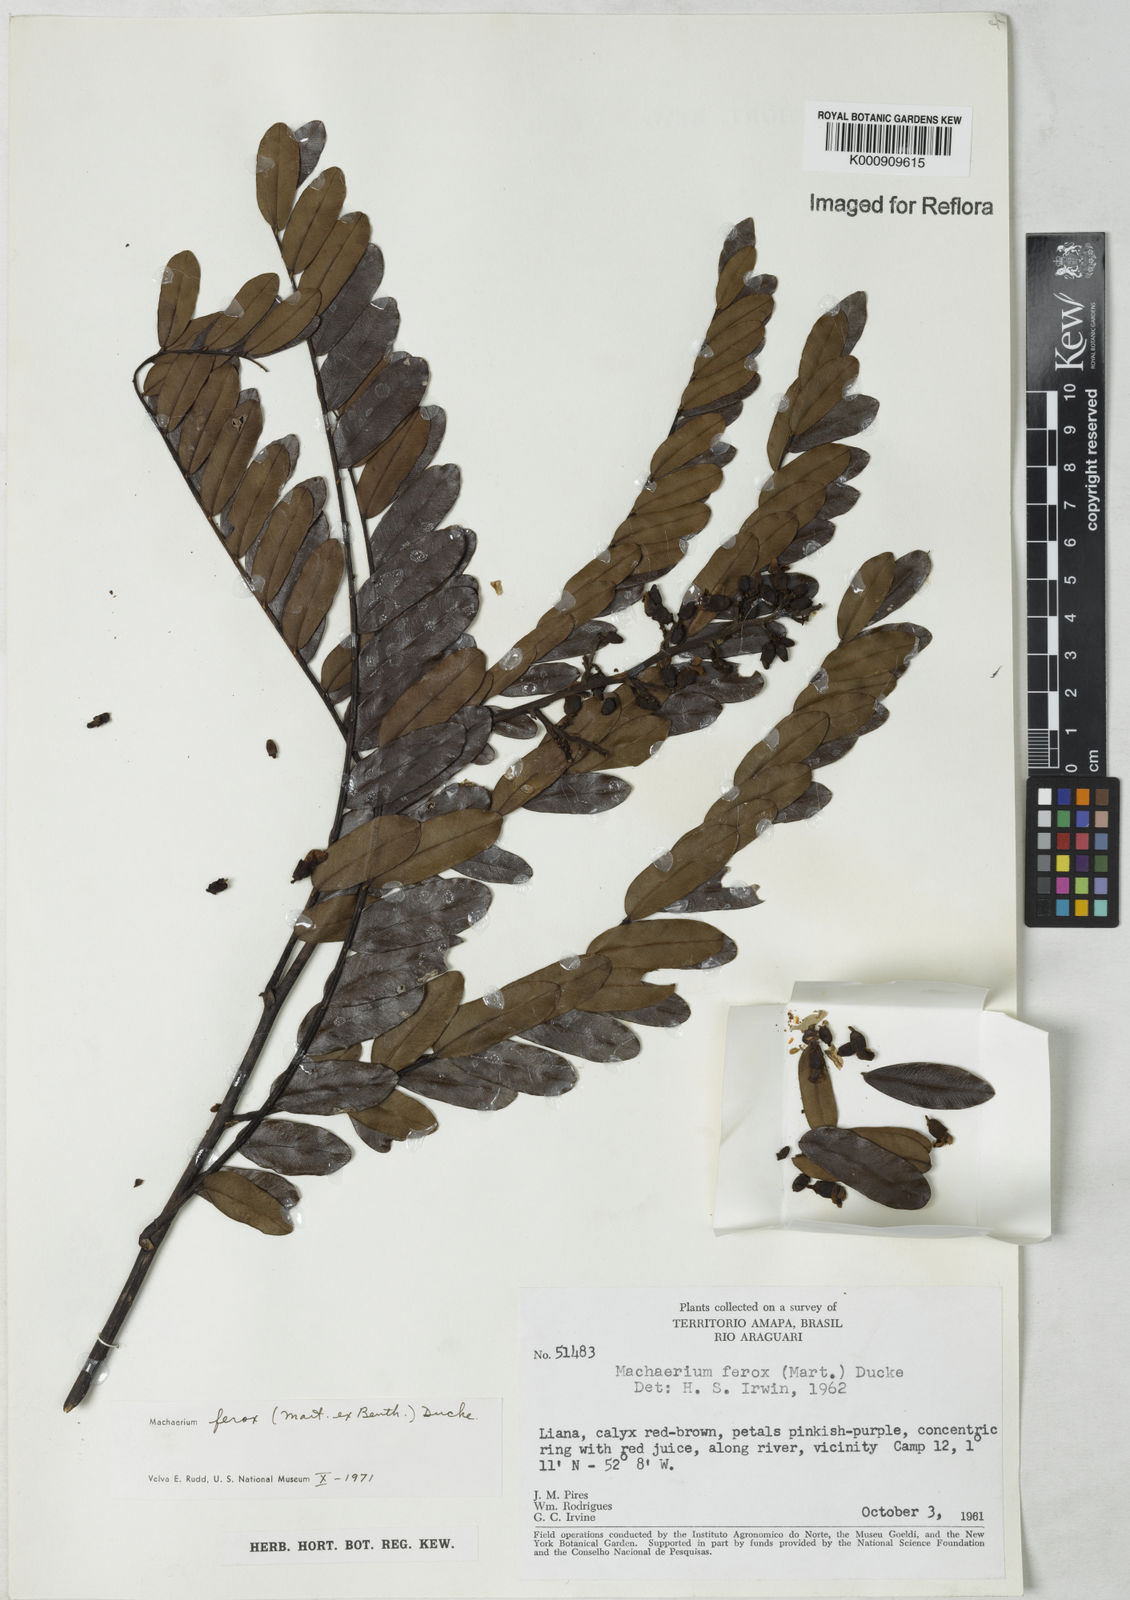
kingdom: Plantae
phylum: Tracheophyta
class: Magnoliopsida
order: Fabales
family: Fabaceae
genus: Machaerium
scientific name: Machaerium ferox
